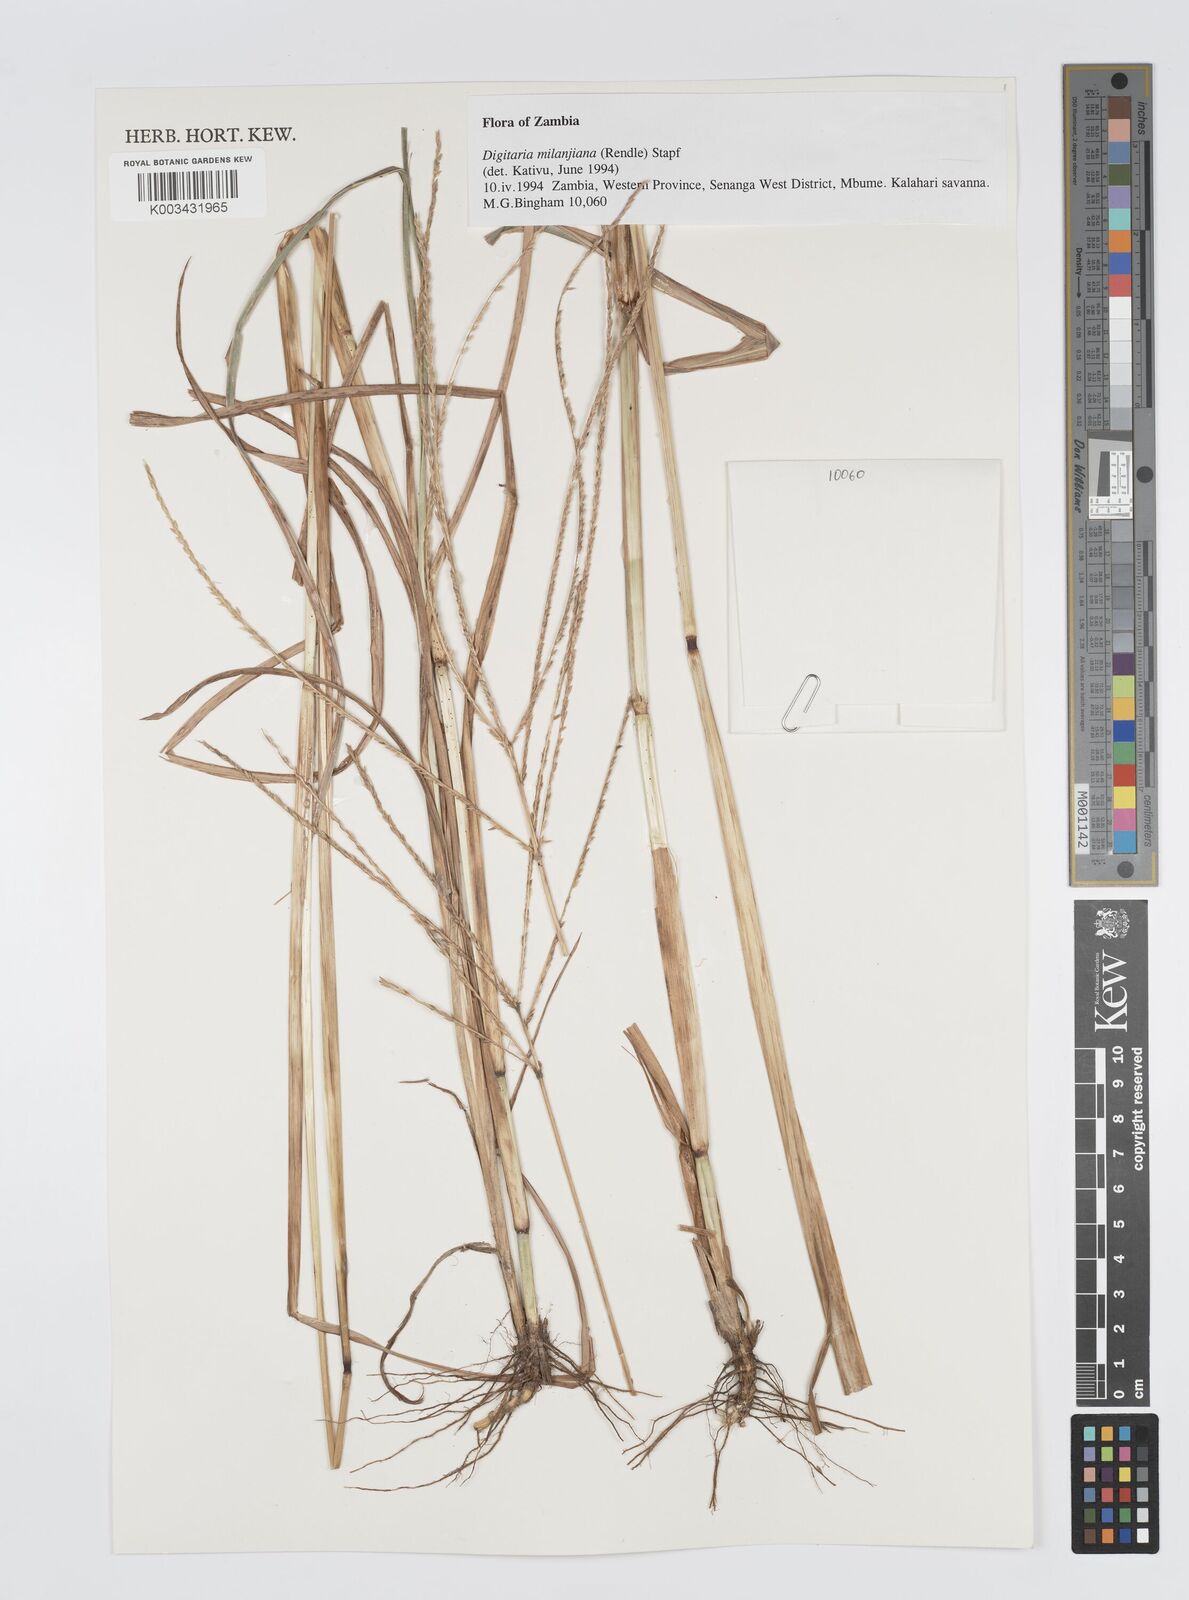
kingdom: Plantae
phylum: Tracheophyta
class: Liliopsida
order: Poales
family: Poaceae
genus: Digitaria
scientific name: Digitaria milanjiana
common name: Madagascar crabgrass
